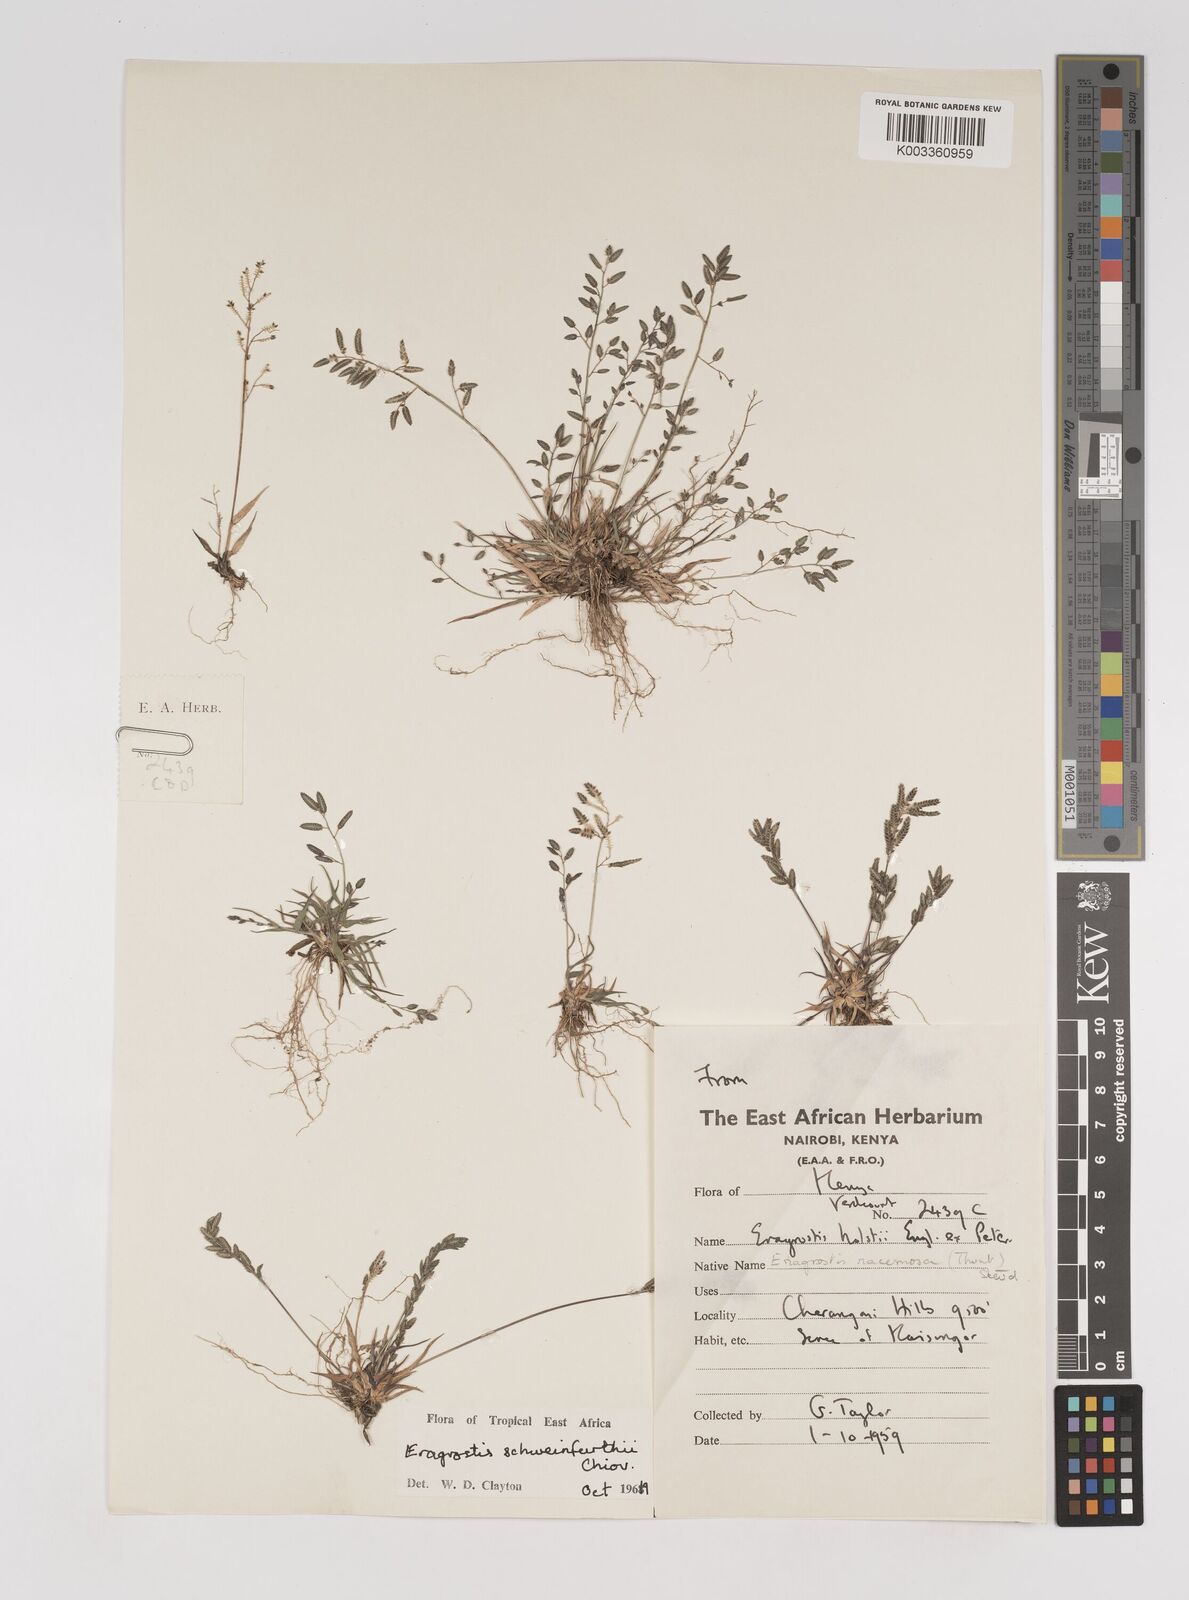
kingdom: Plantae
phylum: Tracheophyta
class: Liliopsida
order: Poales
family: Poaceae
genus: Eragrostis
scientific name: Eragrostis schweinfurthii
